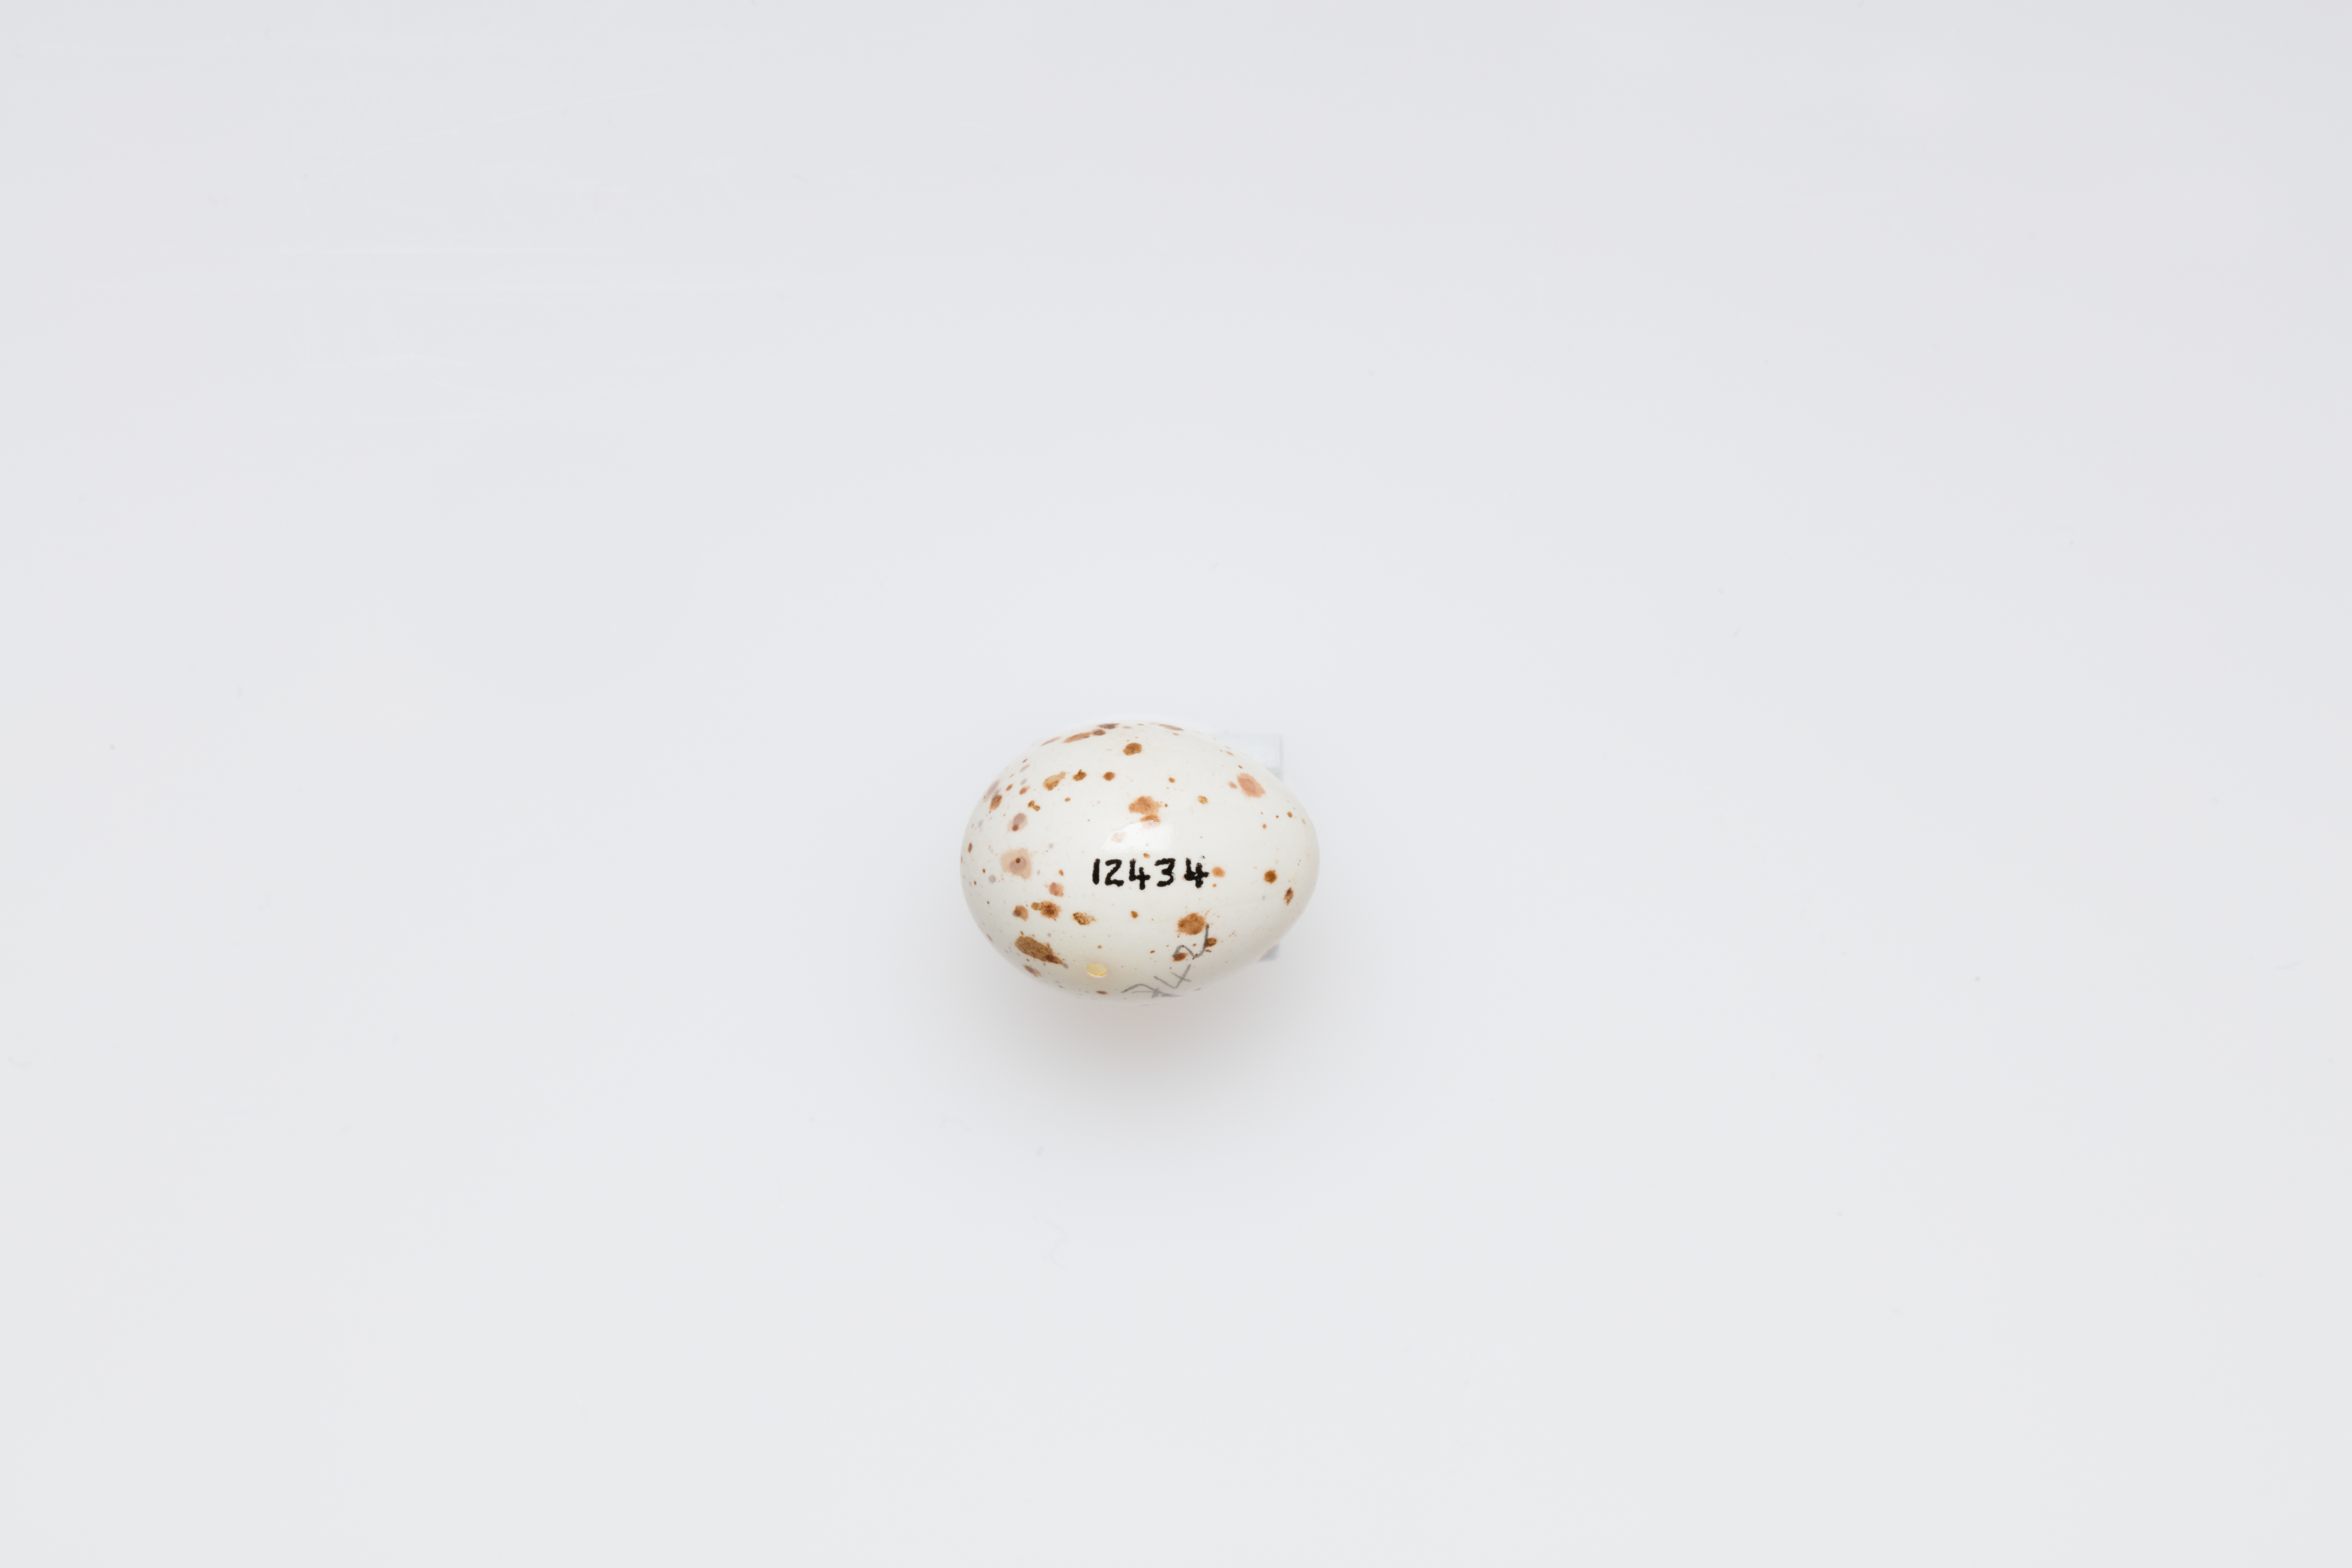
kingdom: Animalia
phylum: Chordata
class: Aves
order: Passeriformes
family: Paridae
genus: Periparus
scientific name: Periparus ater
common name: Coal tit
